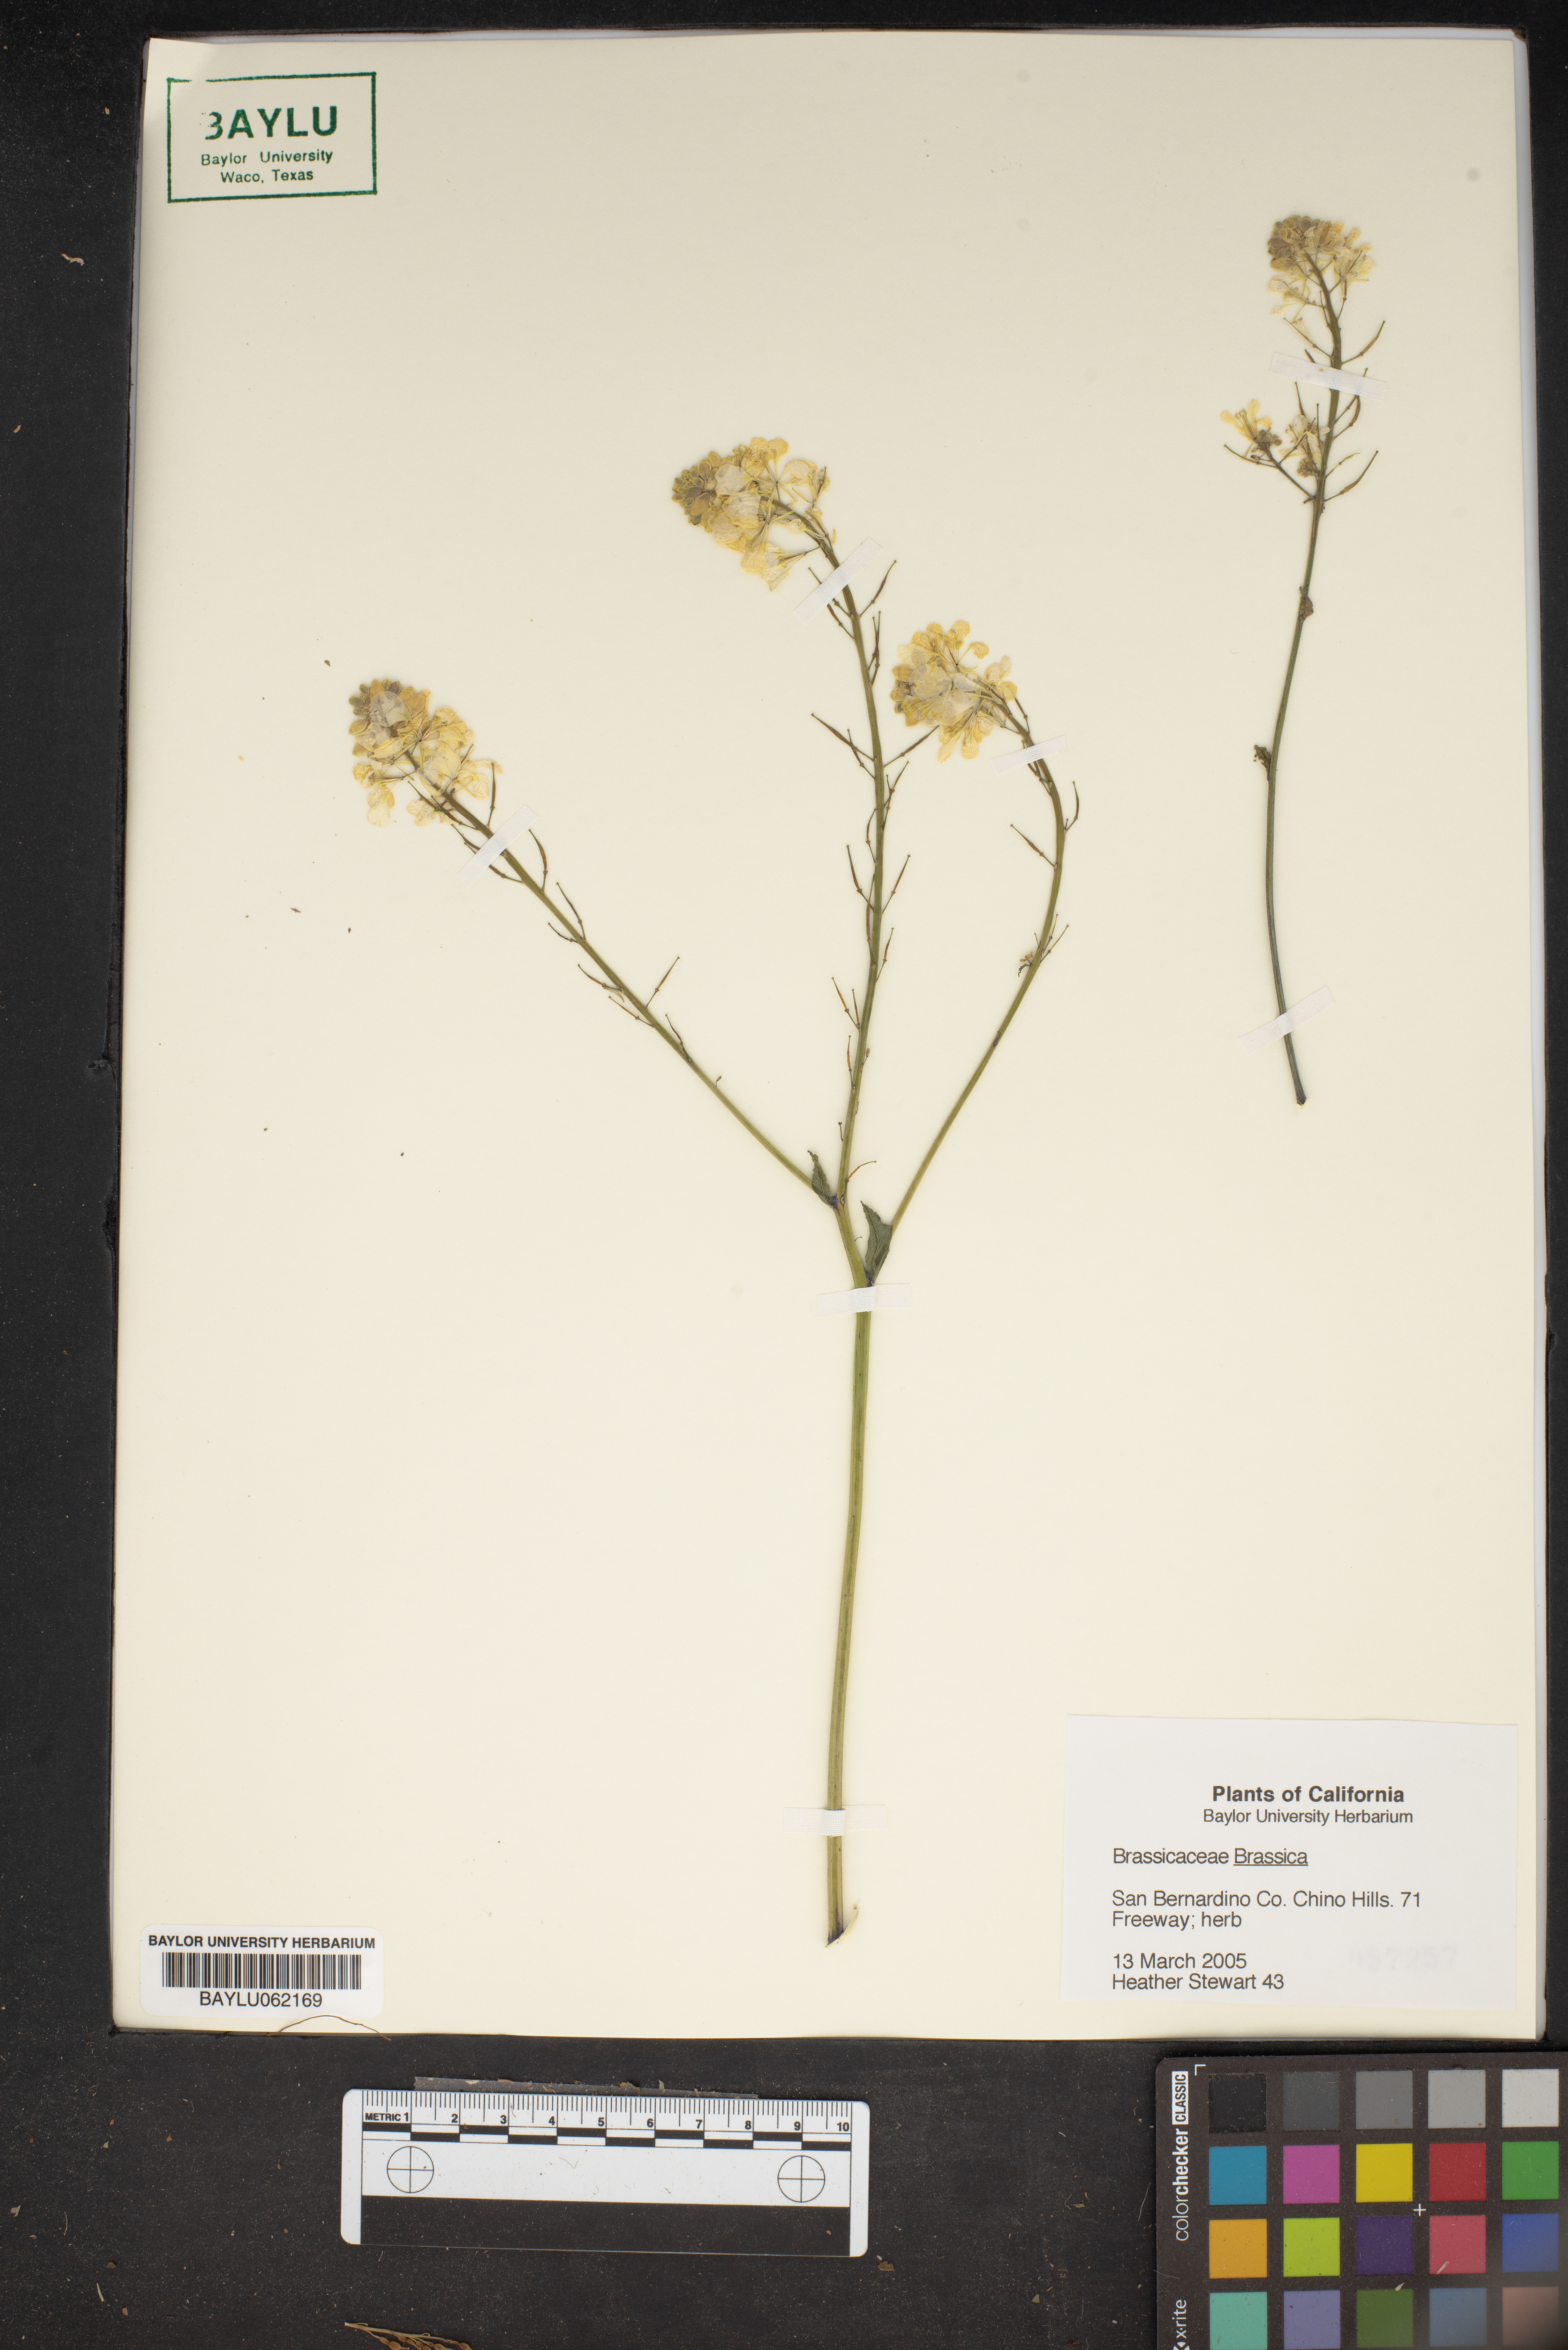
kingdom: Plantae
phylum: Tracheophyta
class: Magnoliopsida
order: Brassicales
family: Brassicaceae
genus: Brassica
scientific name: Brassica
